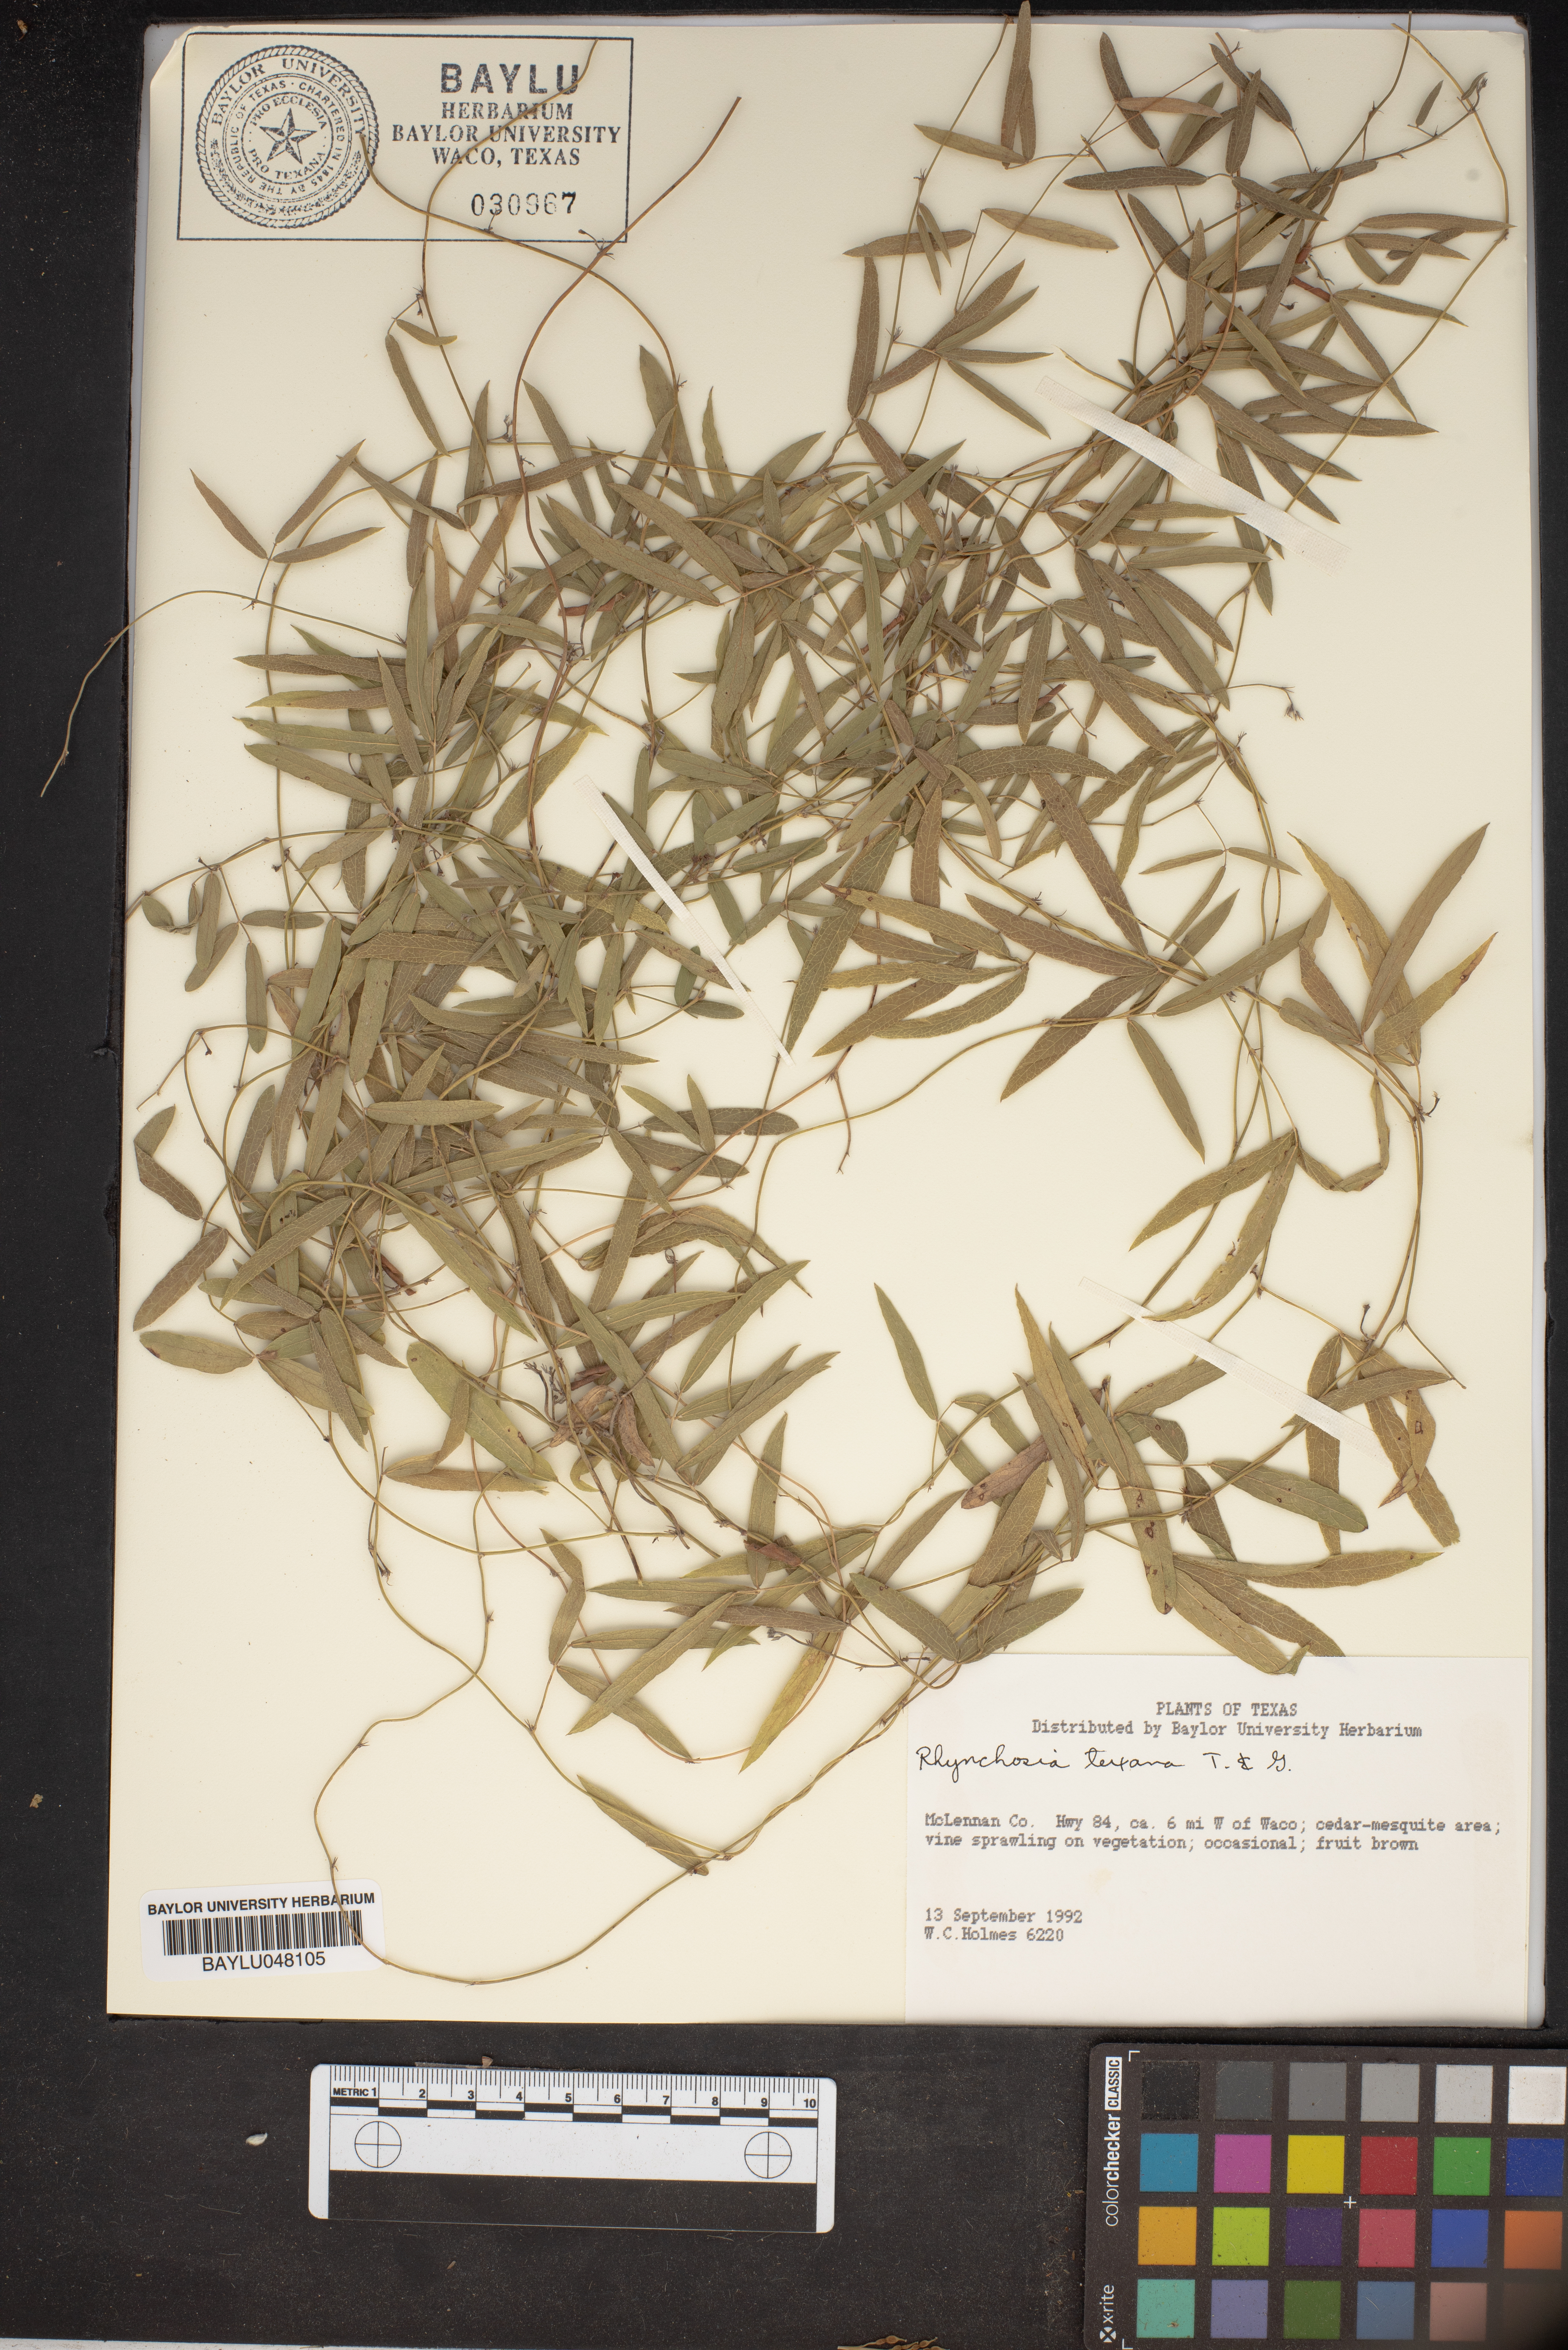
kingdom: Plantae
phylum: Tracheophyta
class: Magnoliopsida
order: Fabales
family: Fabaceae
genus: Rhynchosia
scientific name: Rhynchosia senna
